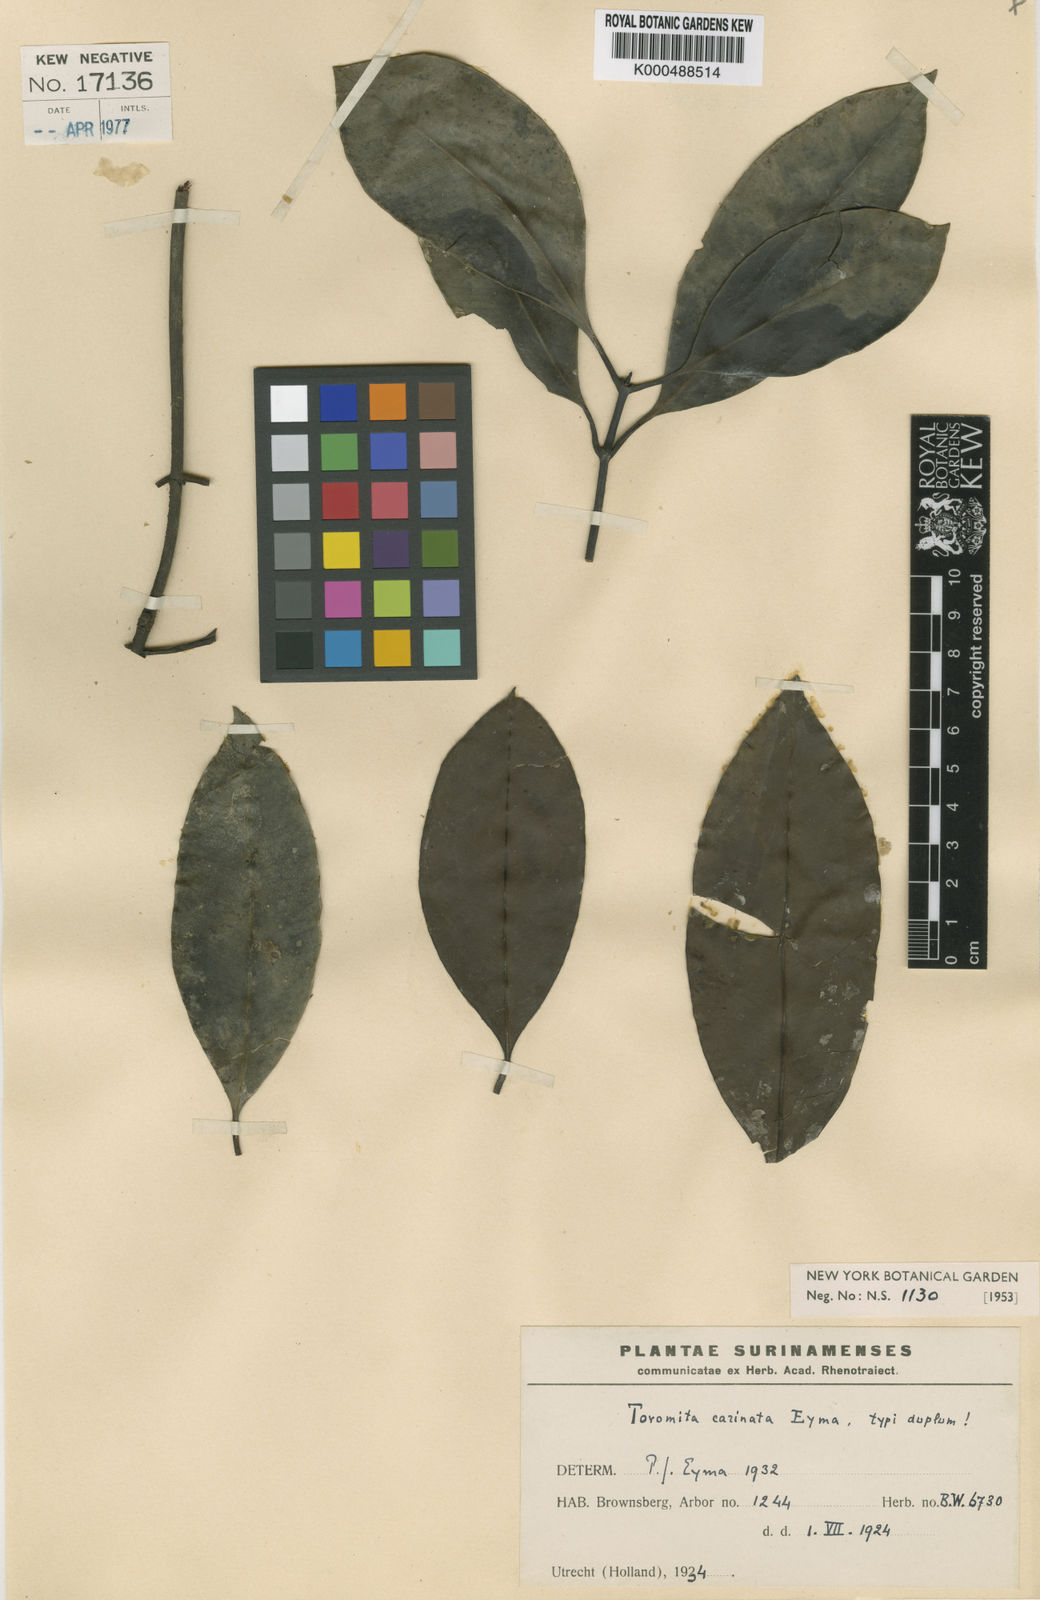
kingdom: Plantae
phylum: Tracheophyta
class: Magnoliopsida
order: Malpighiales
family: Clusiaceae
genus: Tovomita
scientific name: Tovomita carinata
